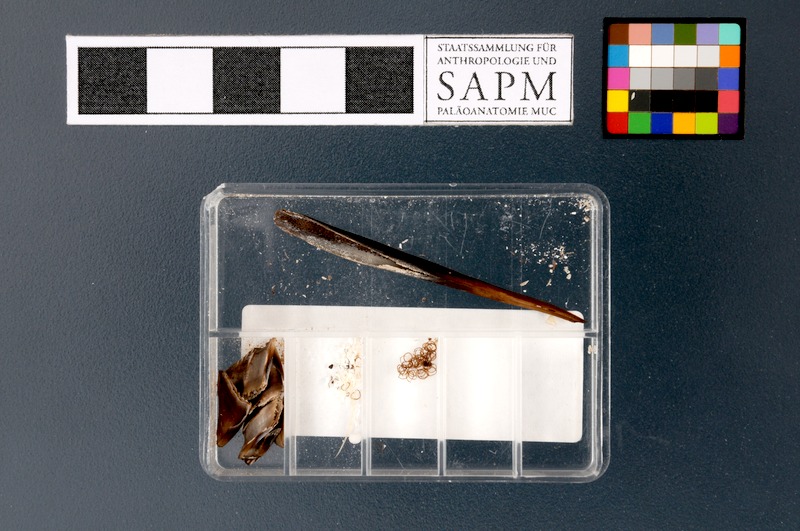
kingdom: Animalia
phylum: Chordata
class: Holocephali
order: Chimaeriformes
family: Chimaeridae
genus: Chimaera
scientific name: Chimaera monstrosa
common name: Rabbitfish
